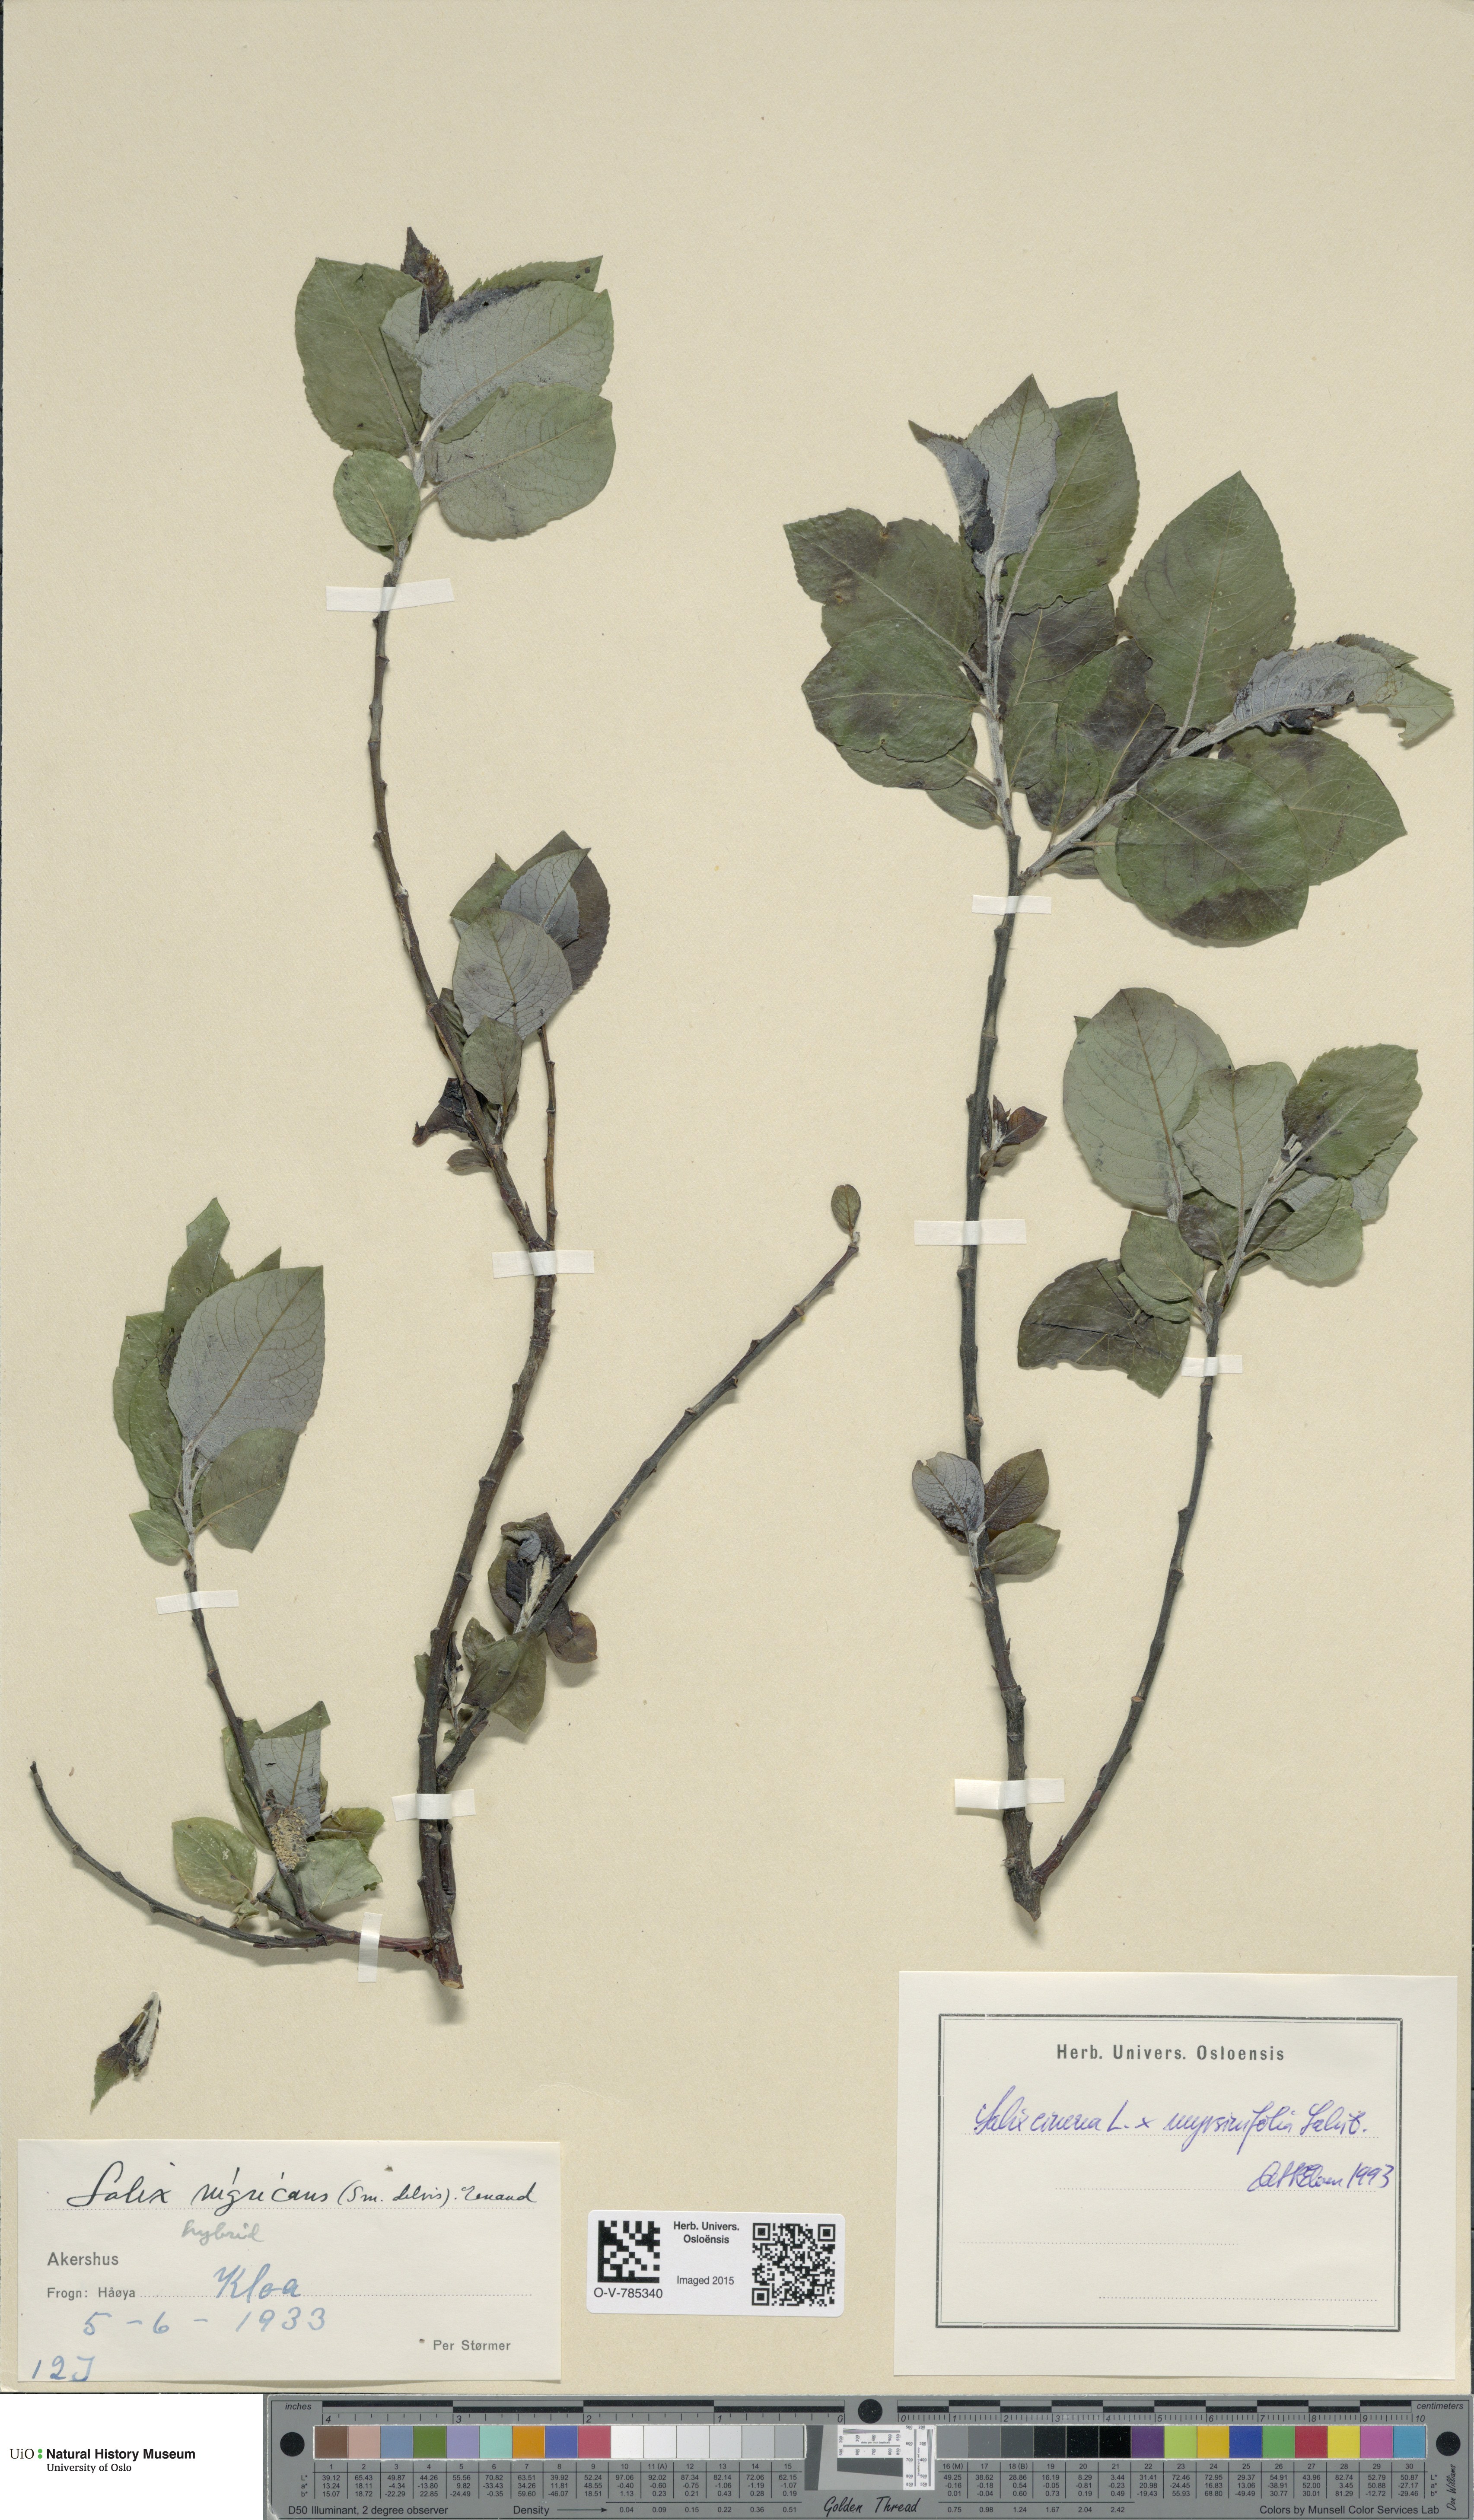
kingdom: Plantae
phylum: Tracheophyta
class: Magnoliopsida
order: Malpighiales
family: Salicaceae
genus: Salix
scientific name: Salix
